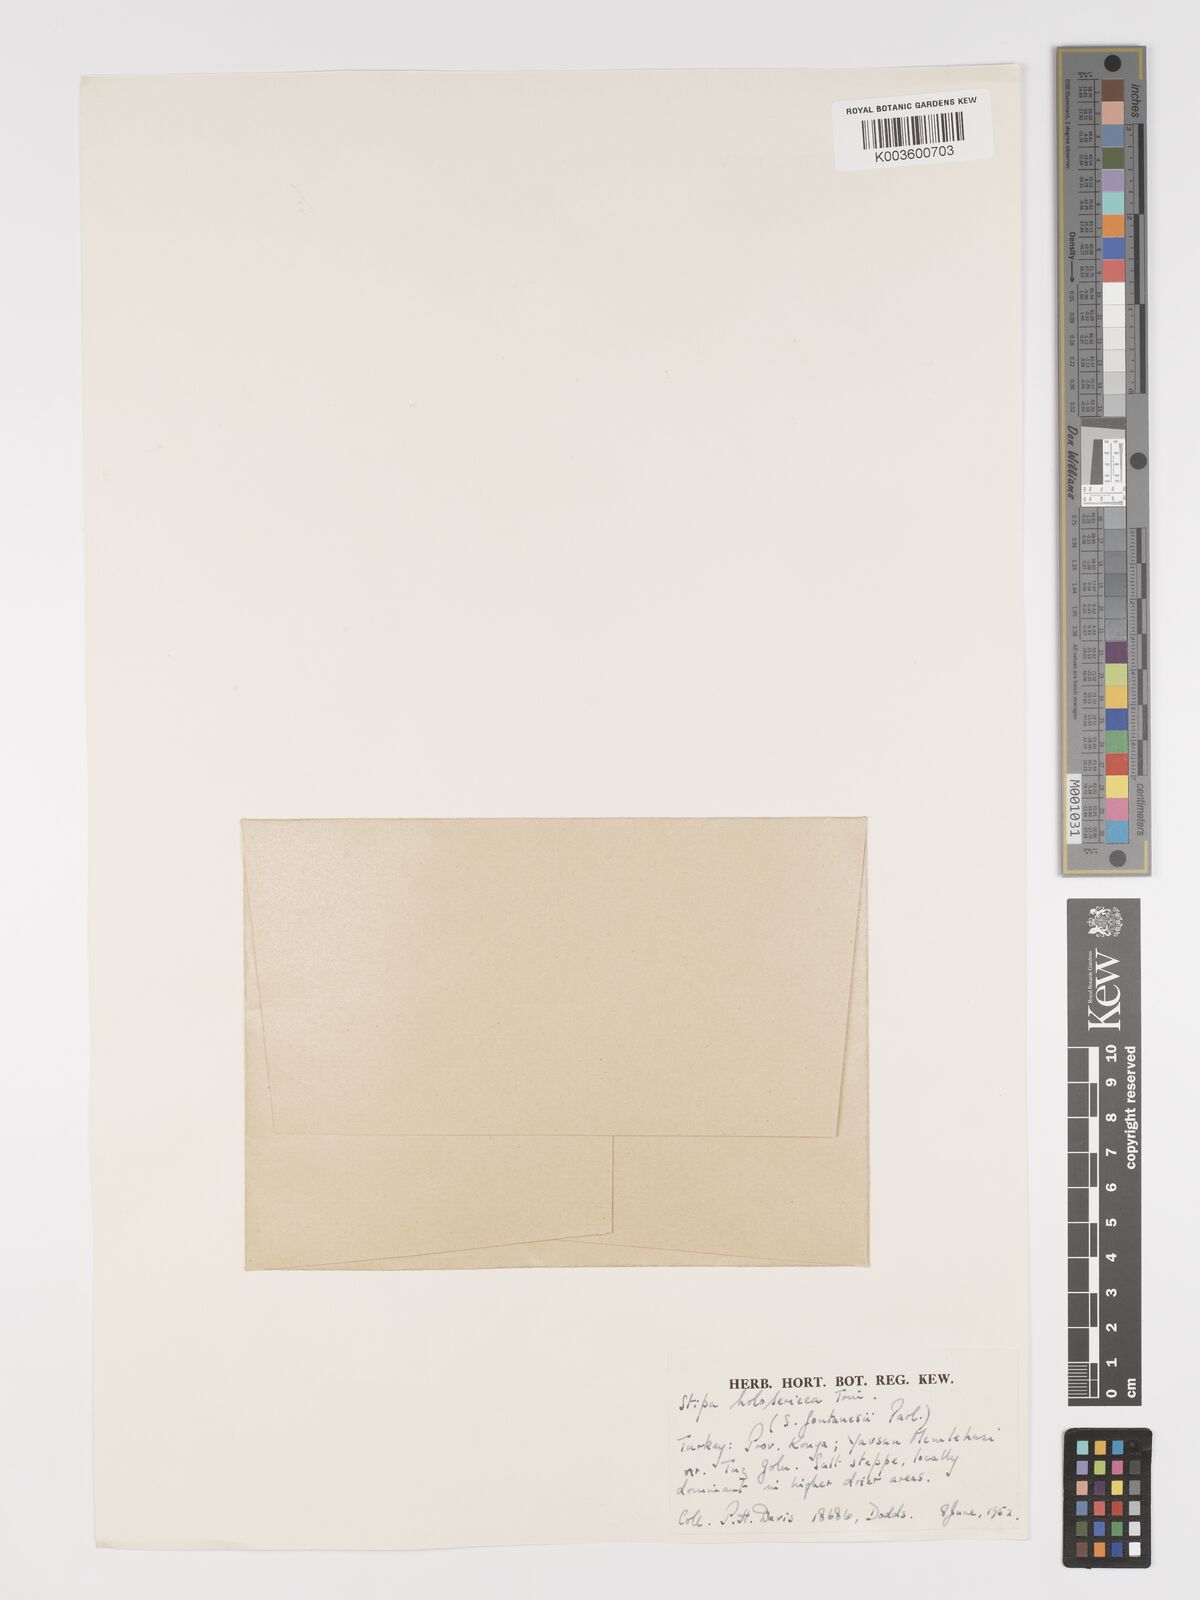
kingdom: Plantae
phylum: Tracheophyta
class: Liliopsida
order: Poales
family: Poaceae
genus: Stipa
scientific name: Stipa holosericea
